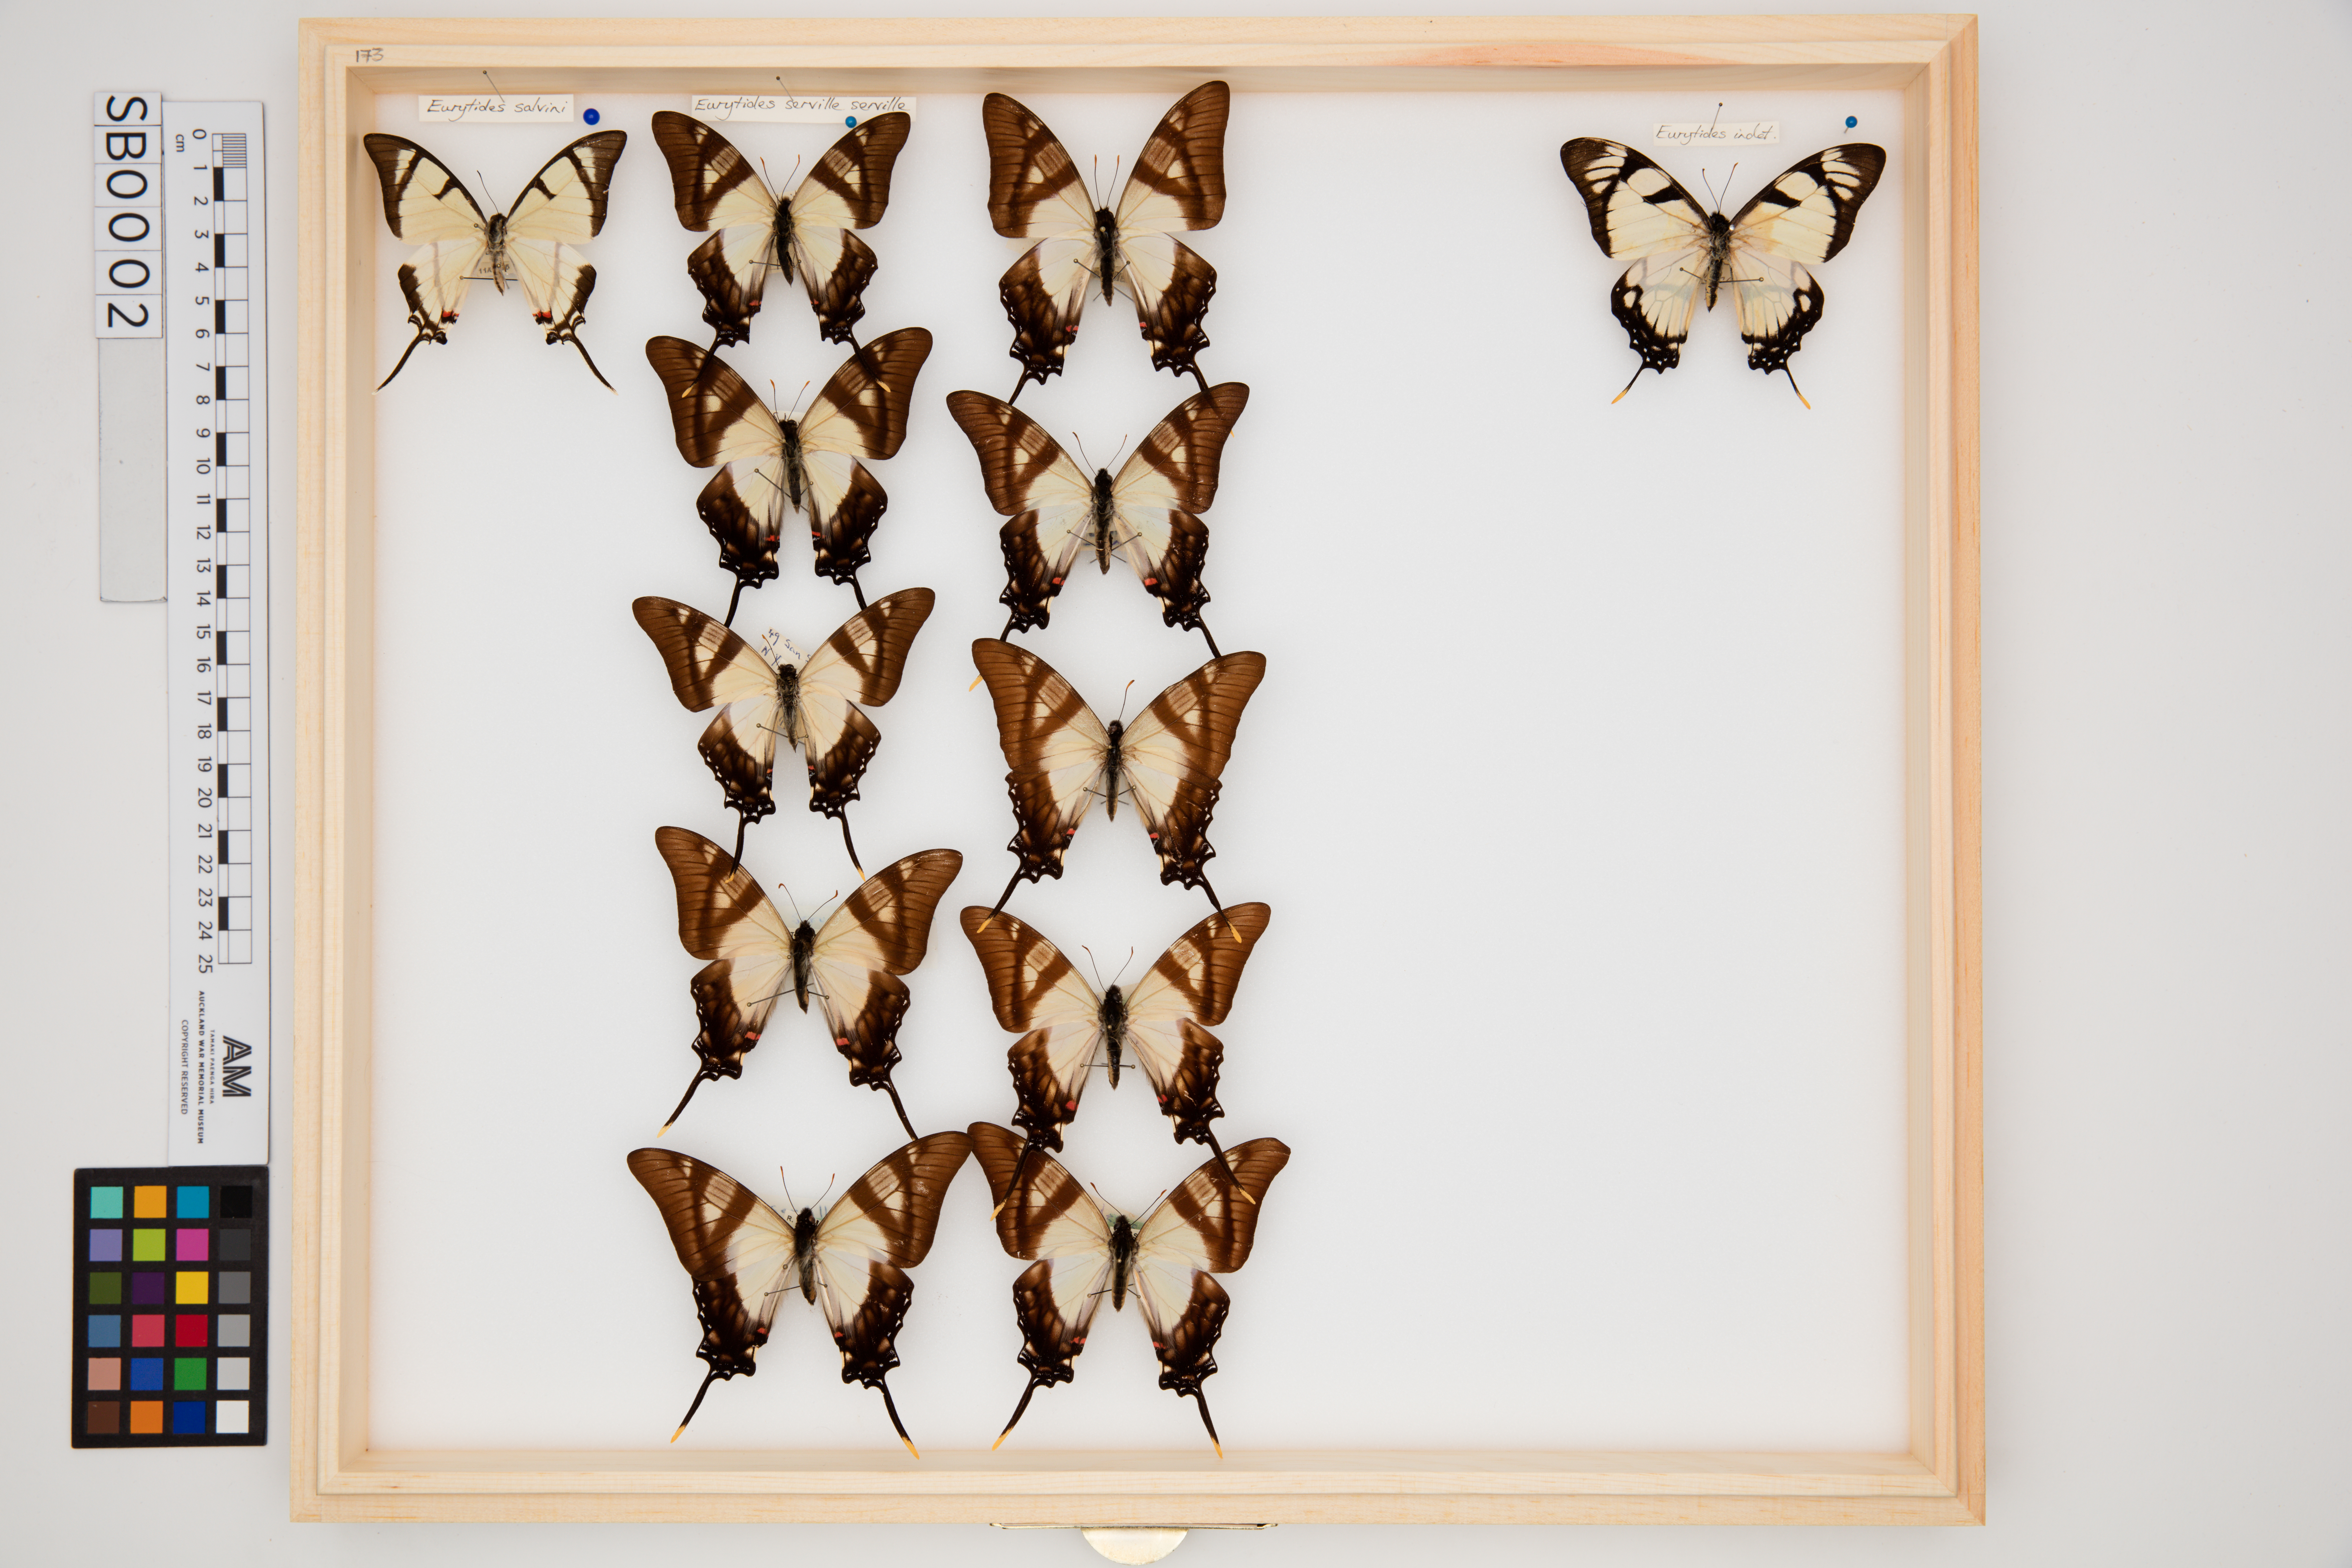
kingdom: Animalia
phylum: Arthropoda
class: Insecta
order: Lepidoptera
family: Papilionidae
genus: Eurytides
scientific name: Eurytides serville
